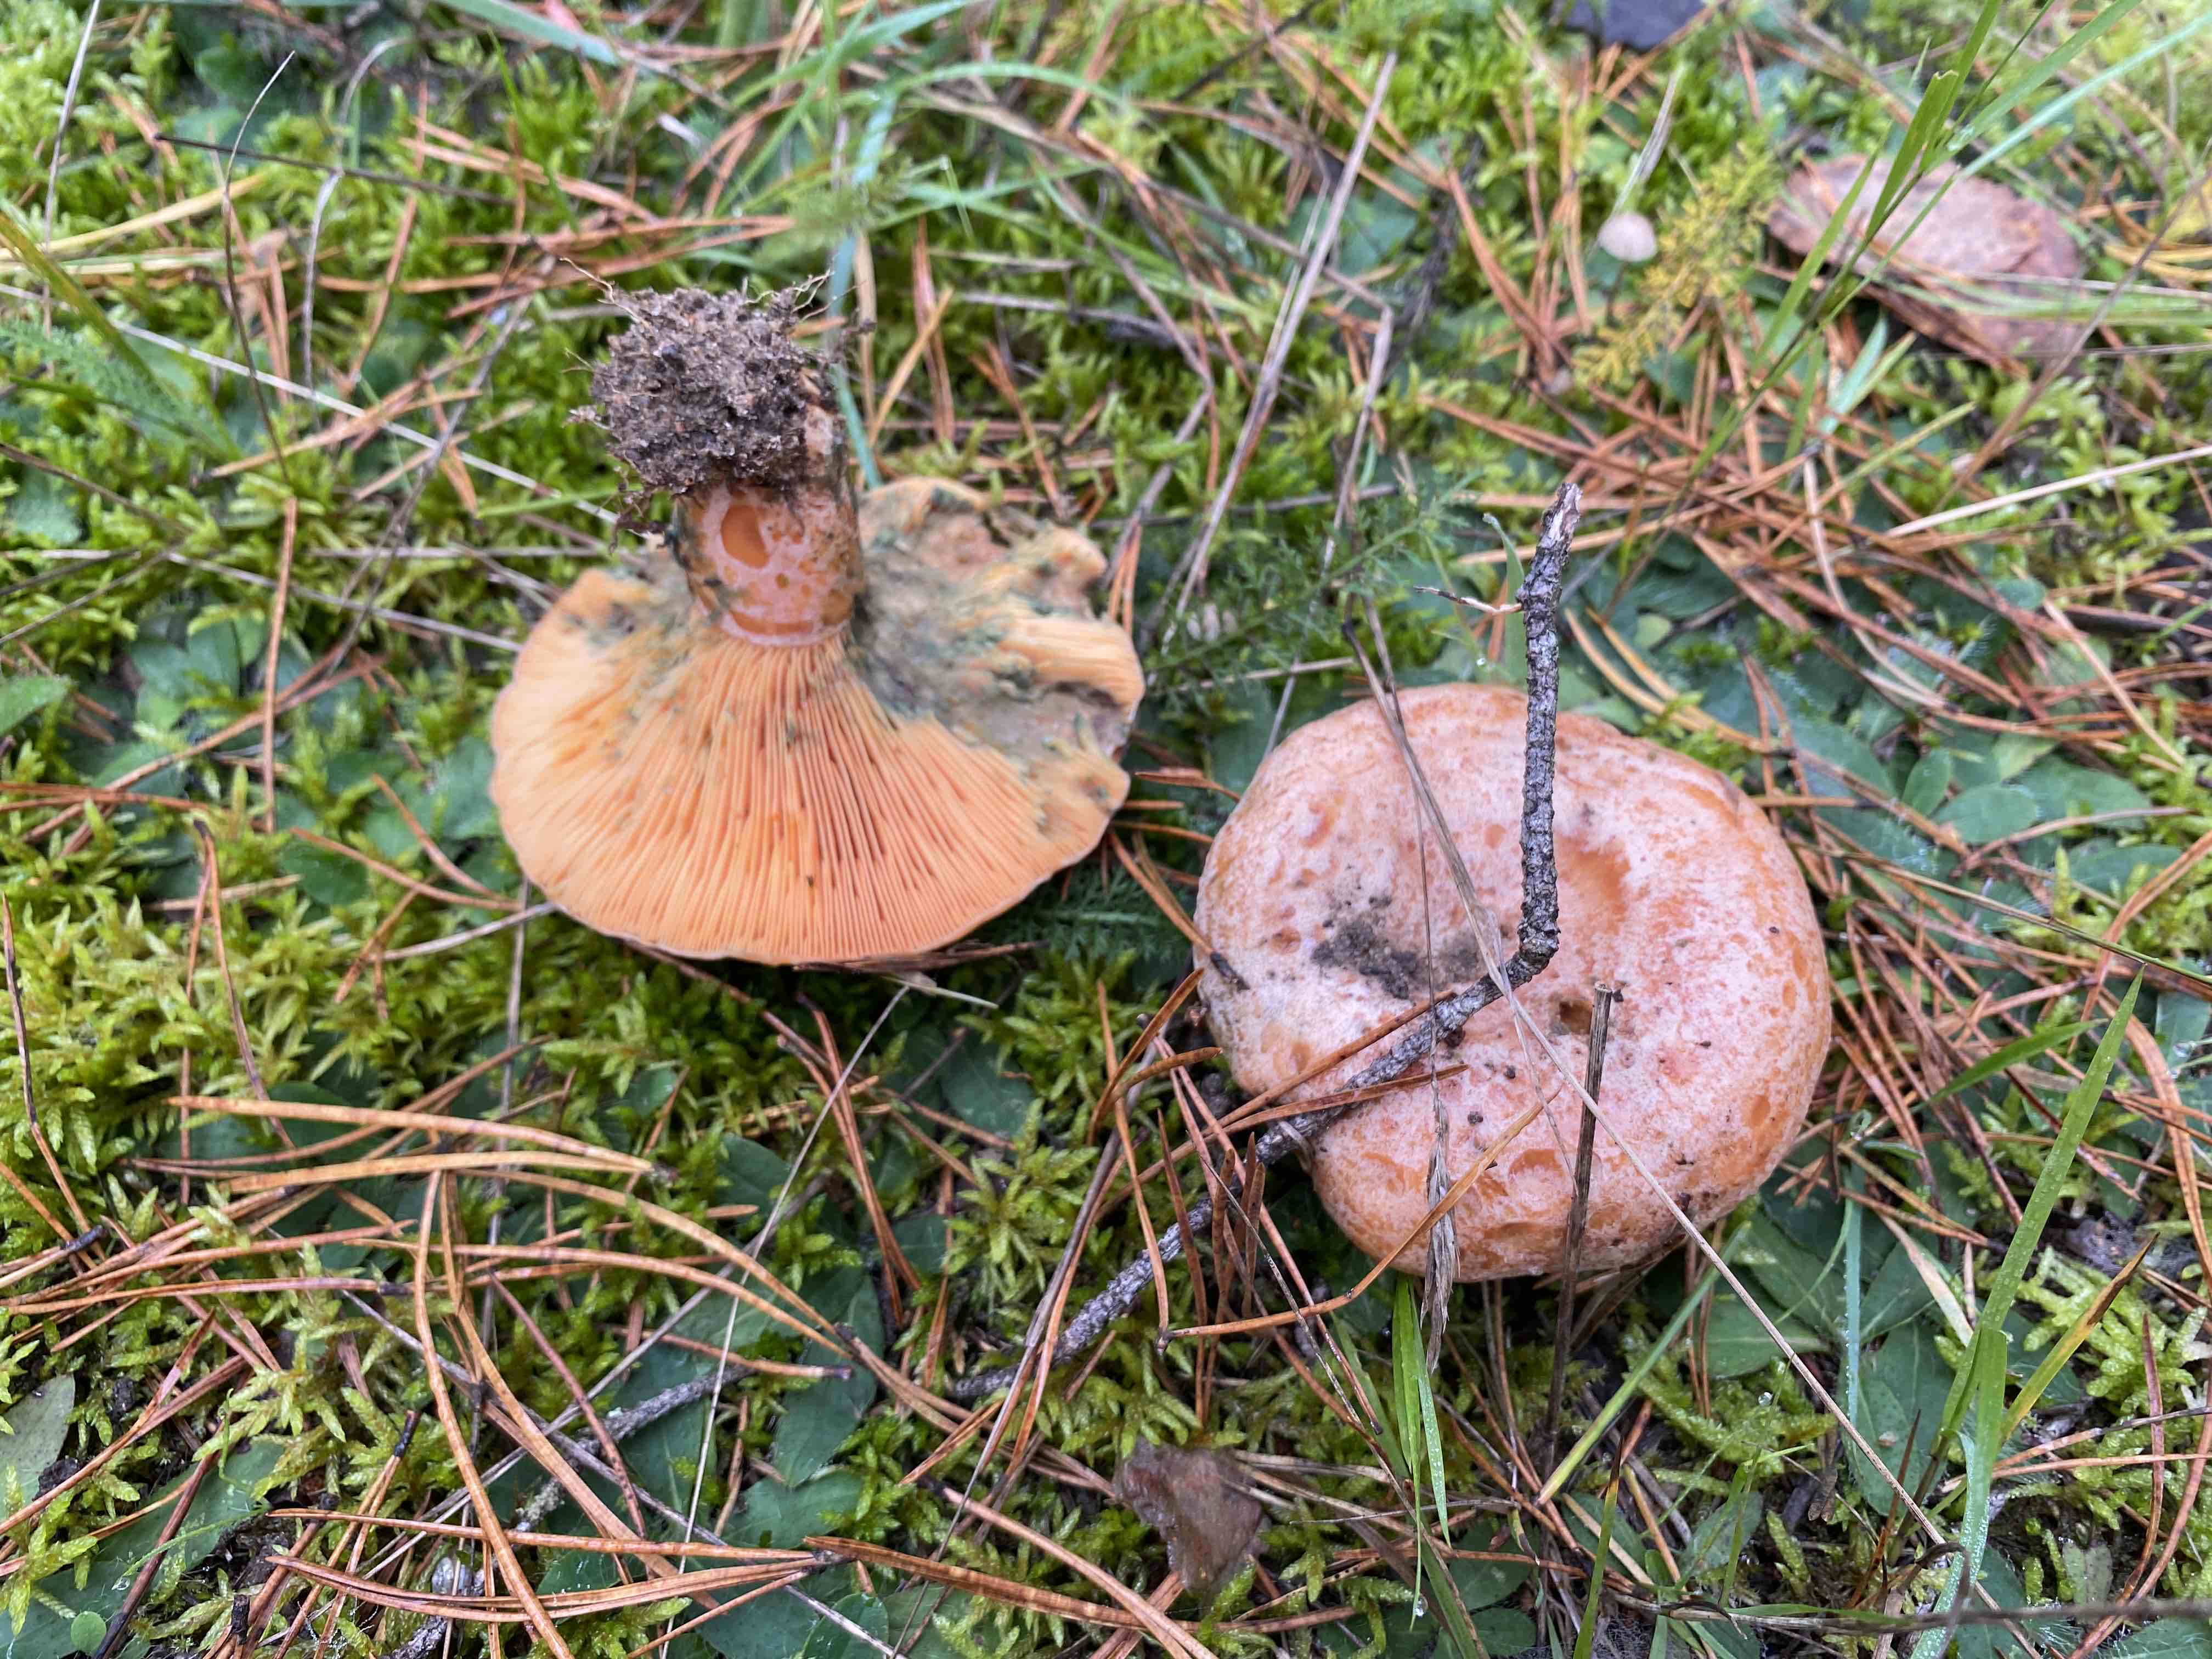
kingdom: Fungi
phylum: Basidiomycota
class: Agaricomycetes
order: Russulales
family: Russulaceae
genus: Lactarius
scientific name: Lactarius deliciosus
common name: velsmagende mælkehat
